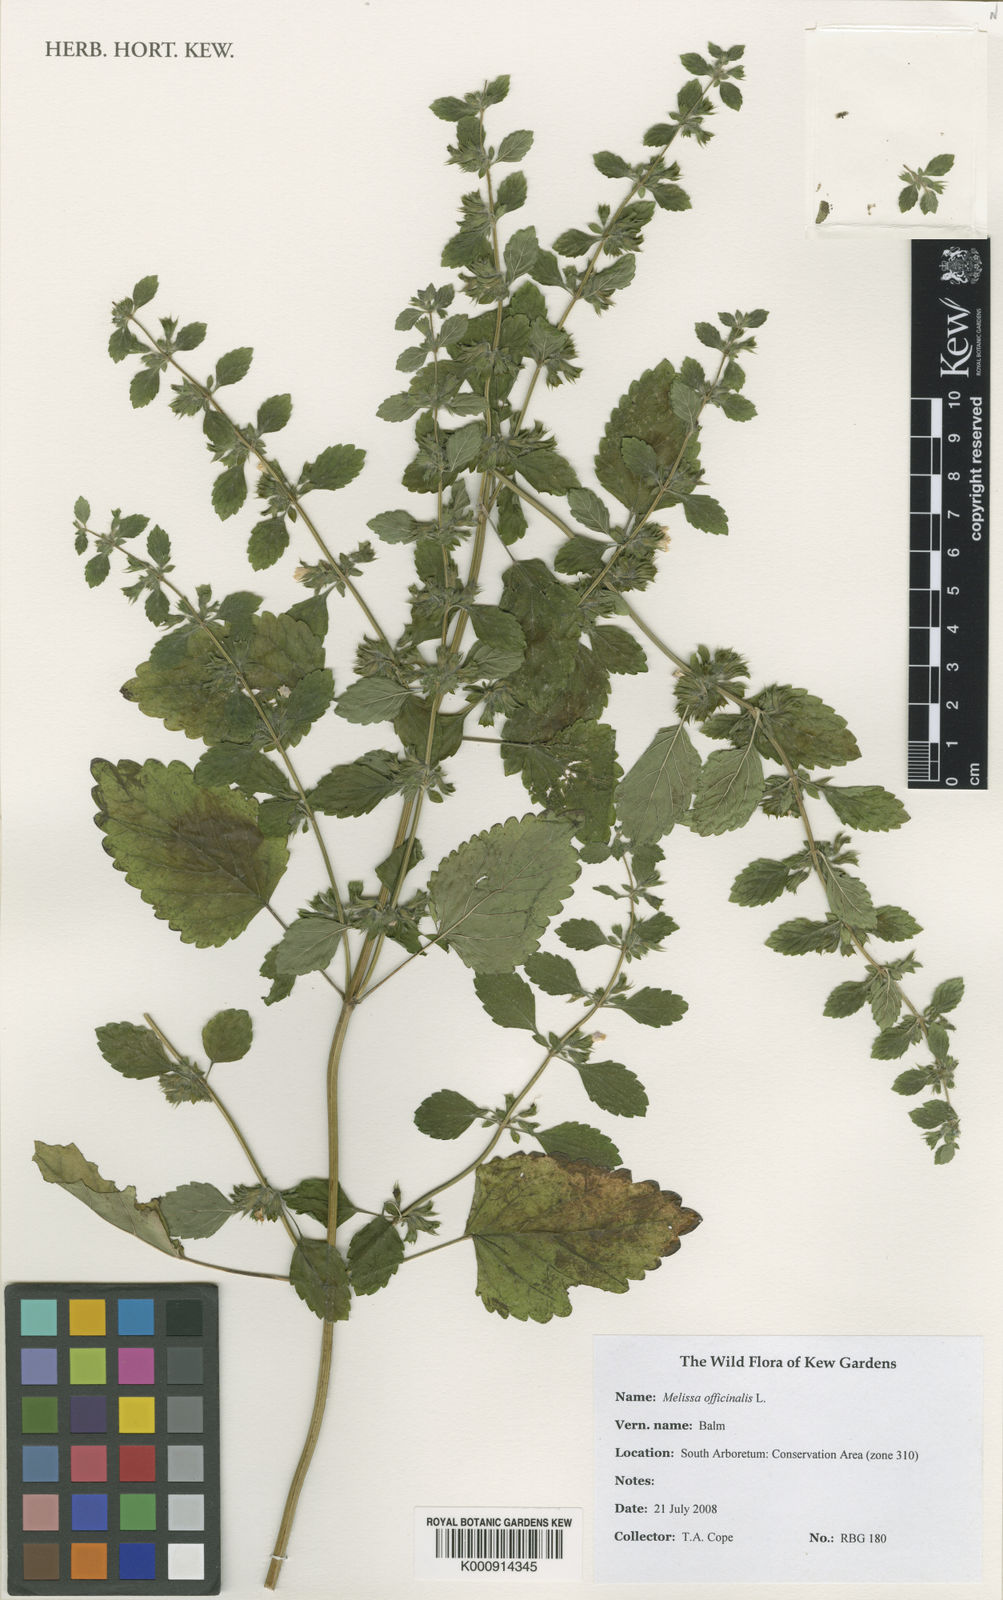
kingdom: Plantae
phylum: Tracheophyta
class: Magnoliopsida
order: Lamiales
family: Lamiaceae
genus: Melissa
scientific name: Melissa officinalis
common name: Balm
